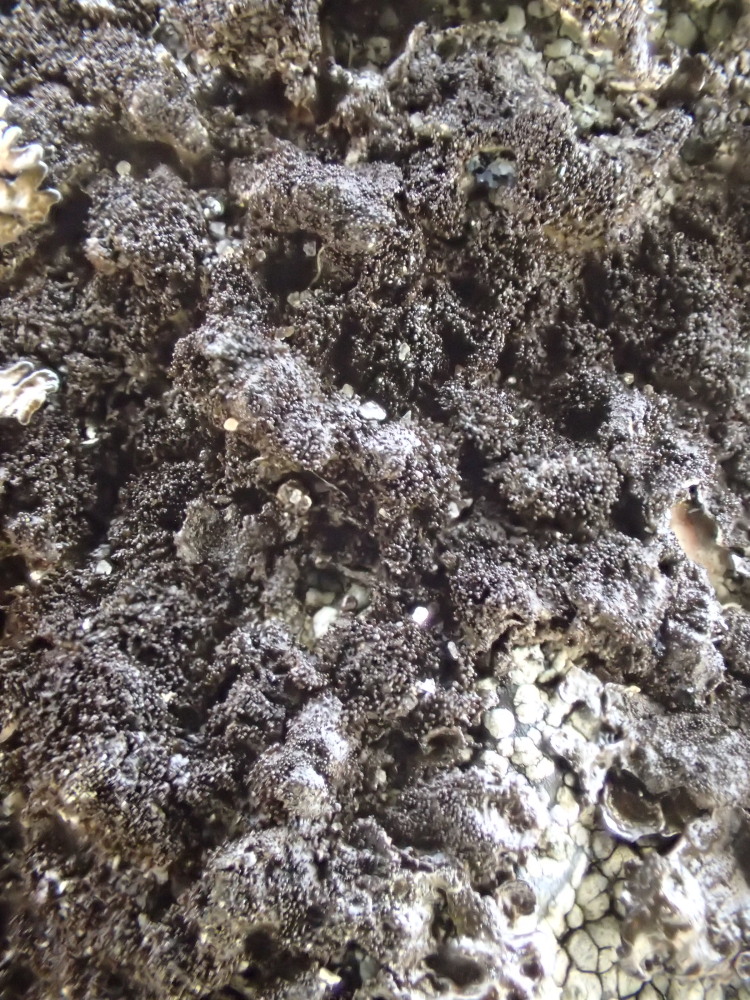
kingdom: Fungi
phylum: Ascomycota
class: Lecanoromycetes
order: Lecanorales
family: Parmeliaceae
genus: Melanelixia
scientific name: Melanelixia fuliginosa
